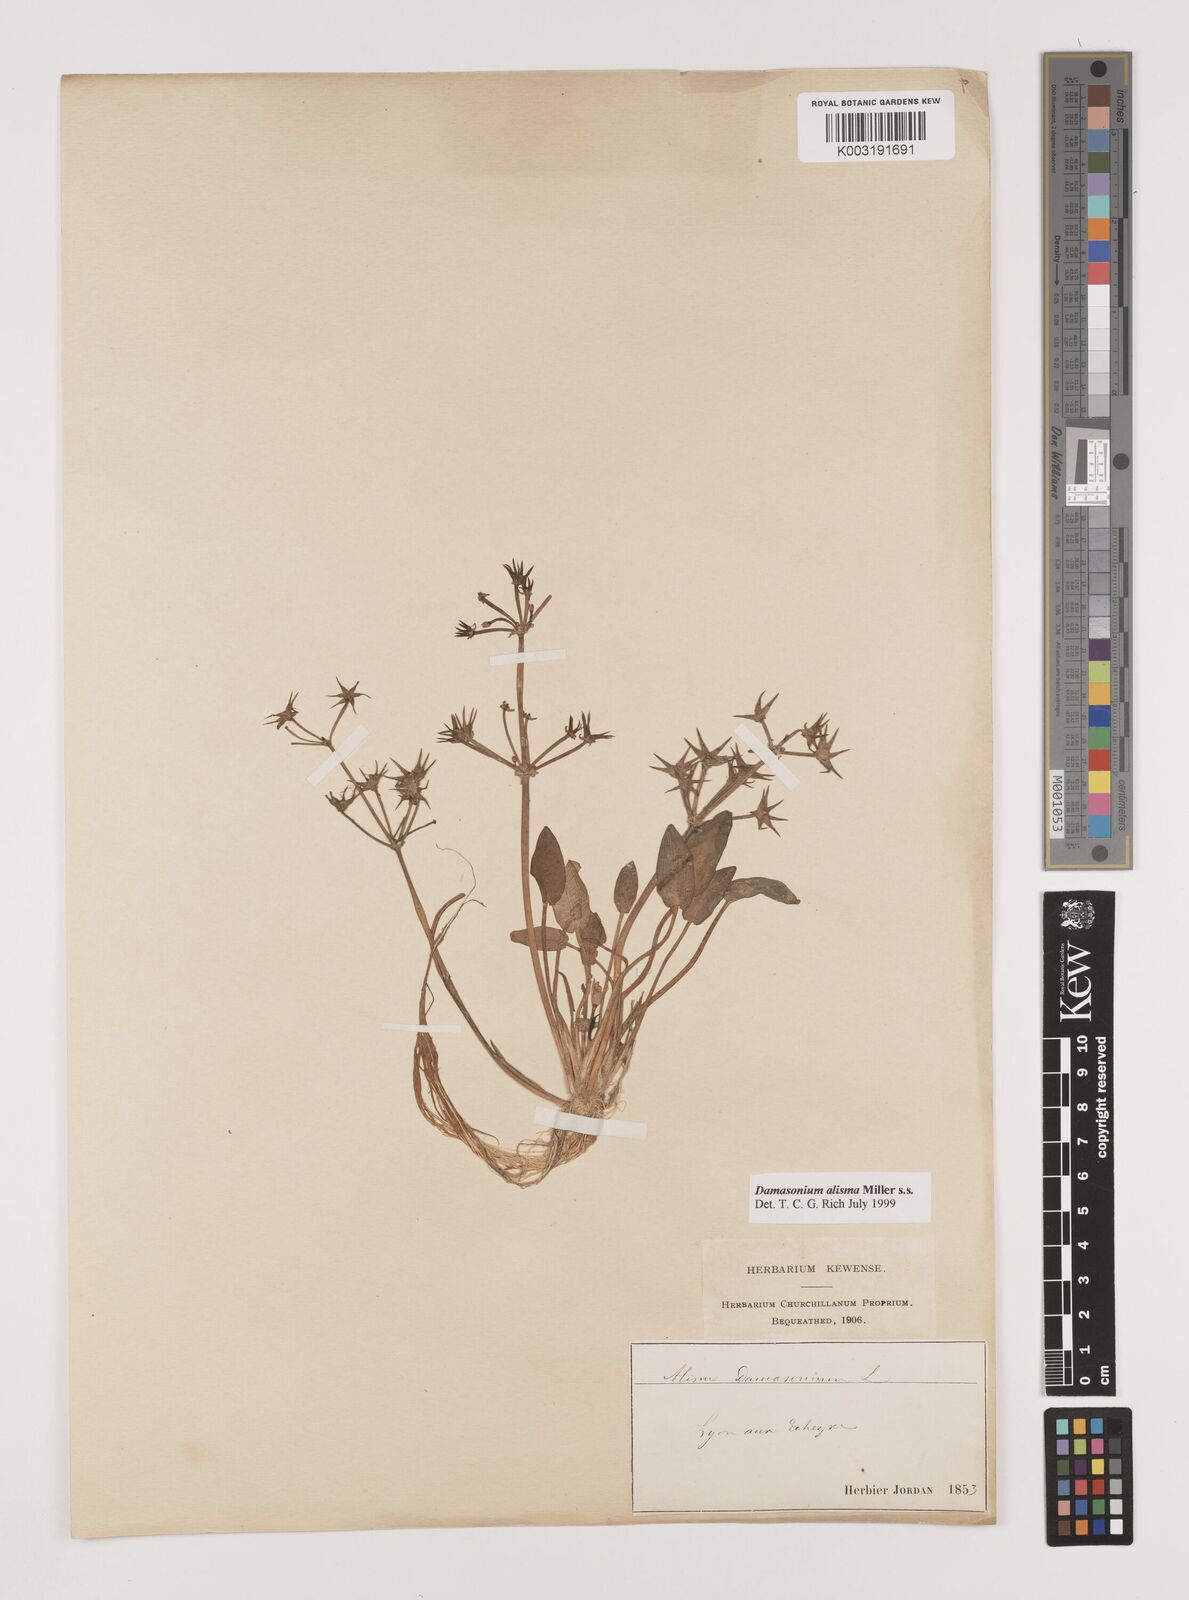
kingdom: Plantae
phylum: Tracheophyta
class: Liliopsida
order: Alismatales
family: Alismataceae
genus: Damasonium
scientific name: Damasonium alisma
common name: Starfruit
